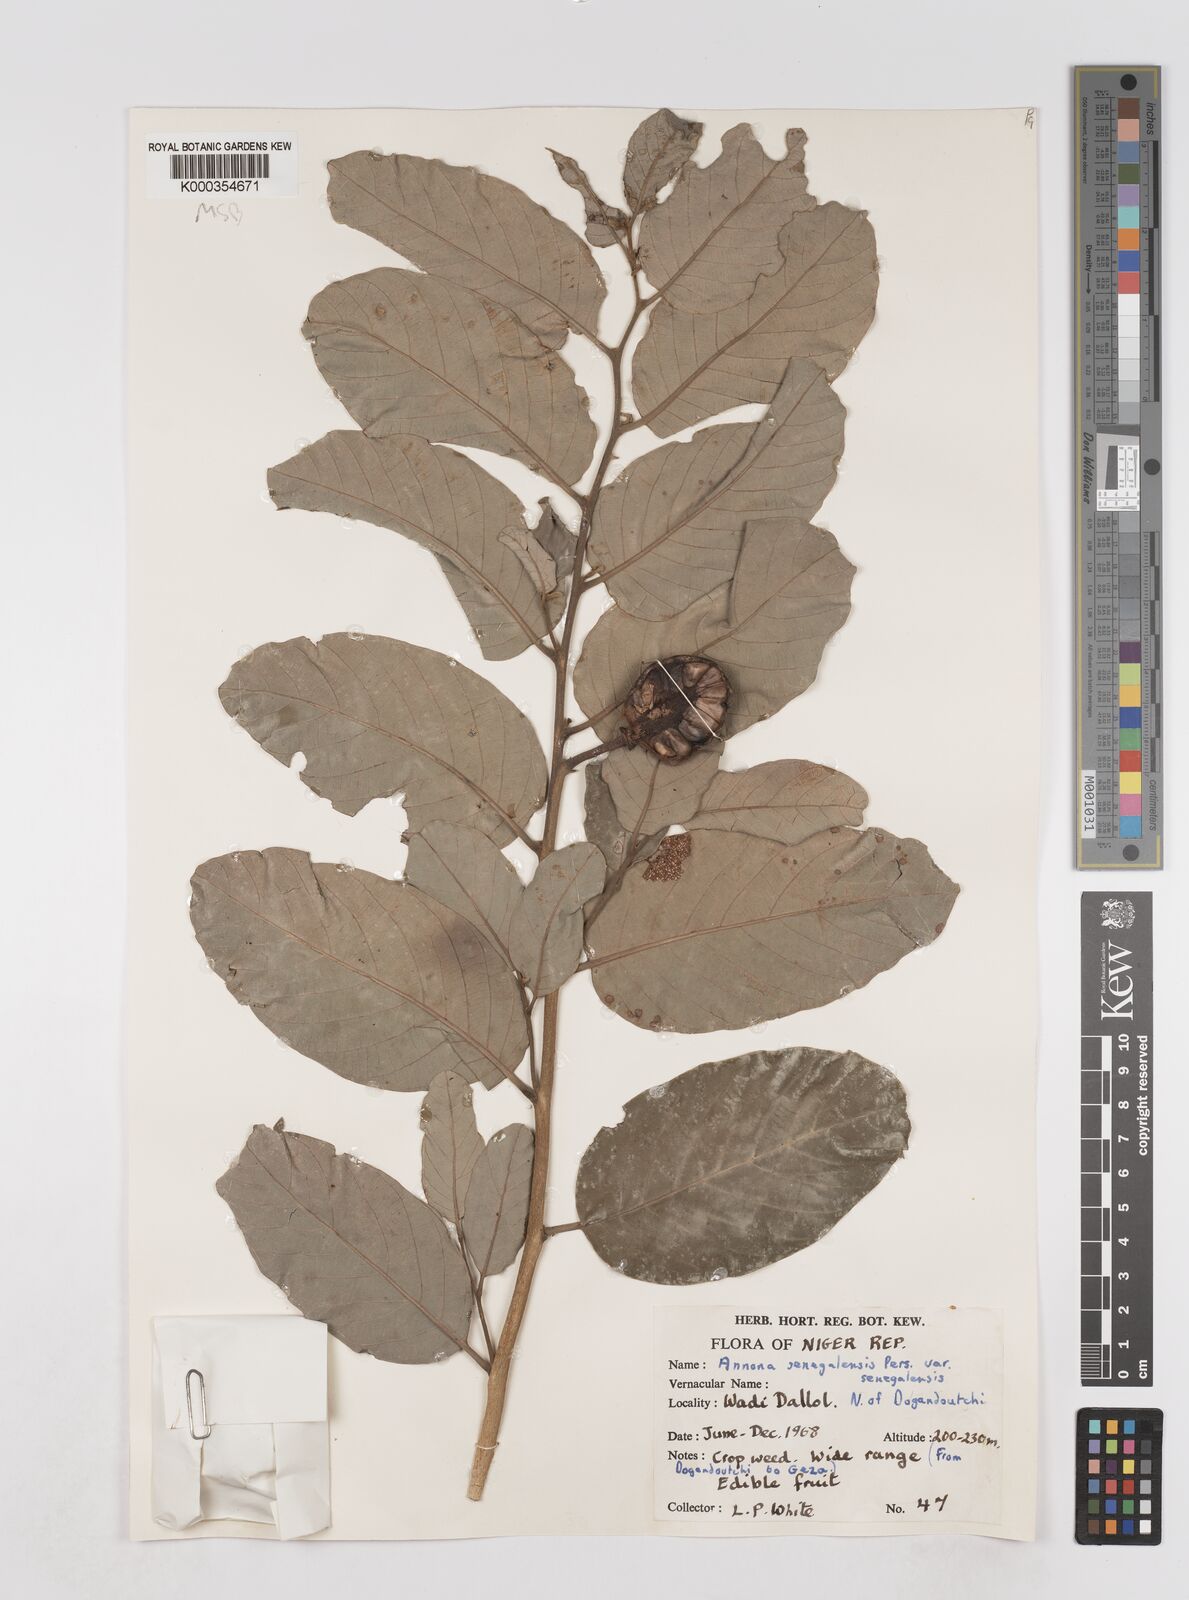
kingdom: Plantae
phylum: Tracheophyta
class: Magnoliopsida
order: Magnoliales
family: Annonaceae
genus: Annona
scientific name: Annona senegalensis
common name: Wild custard-apple
